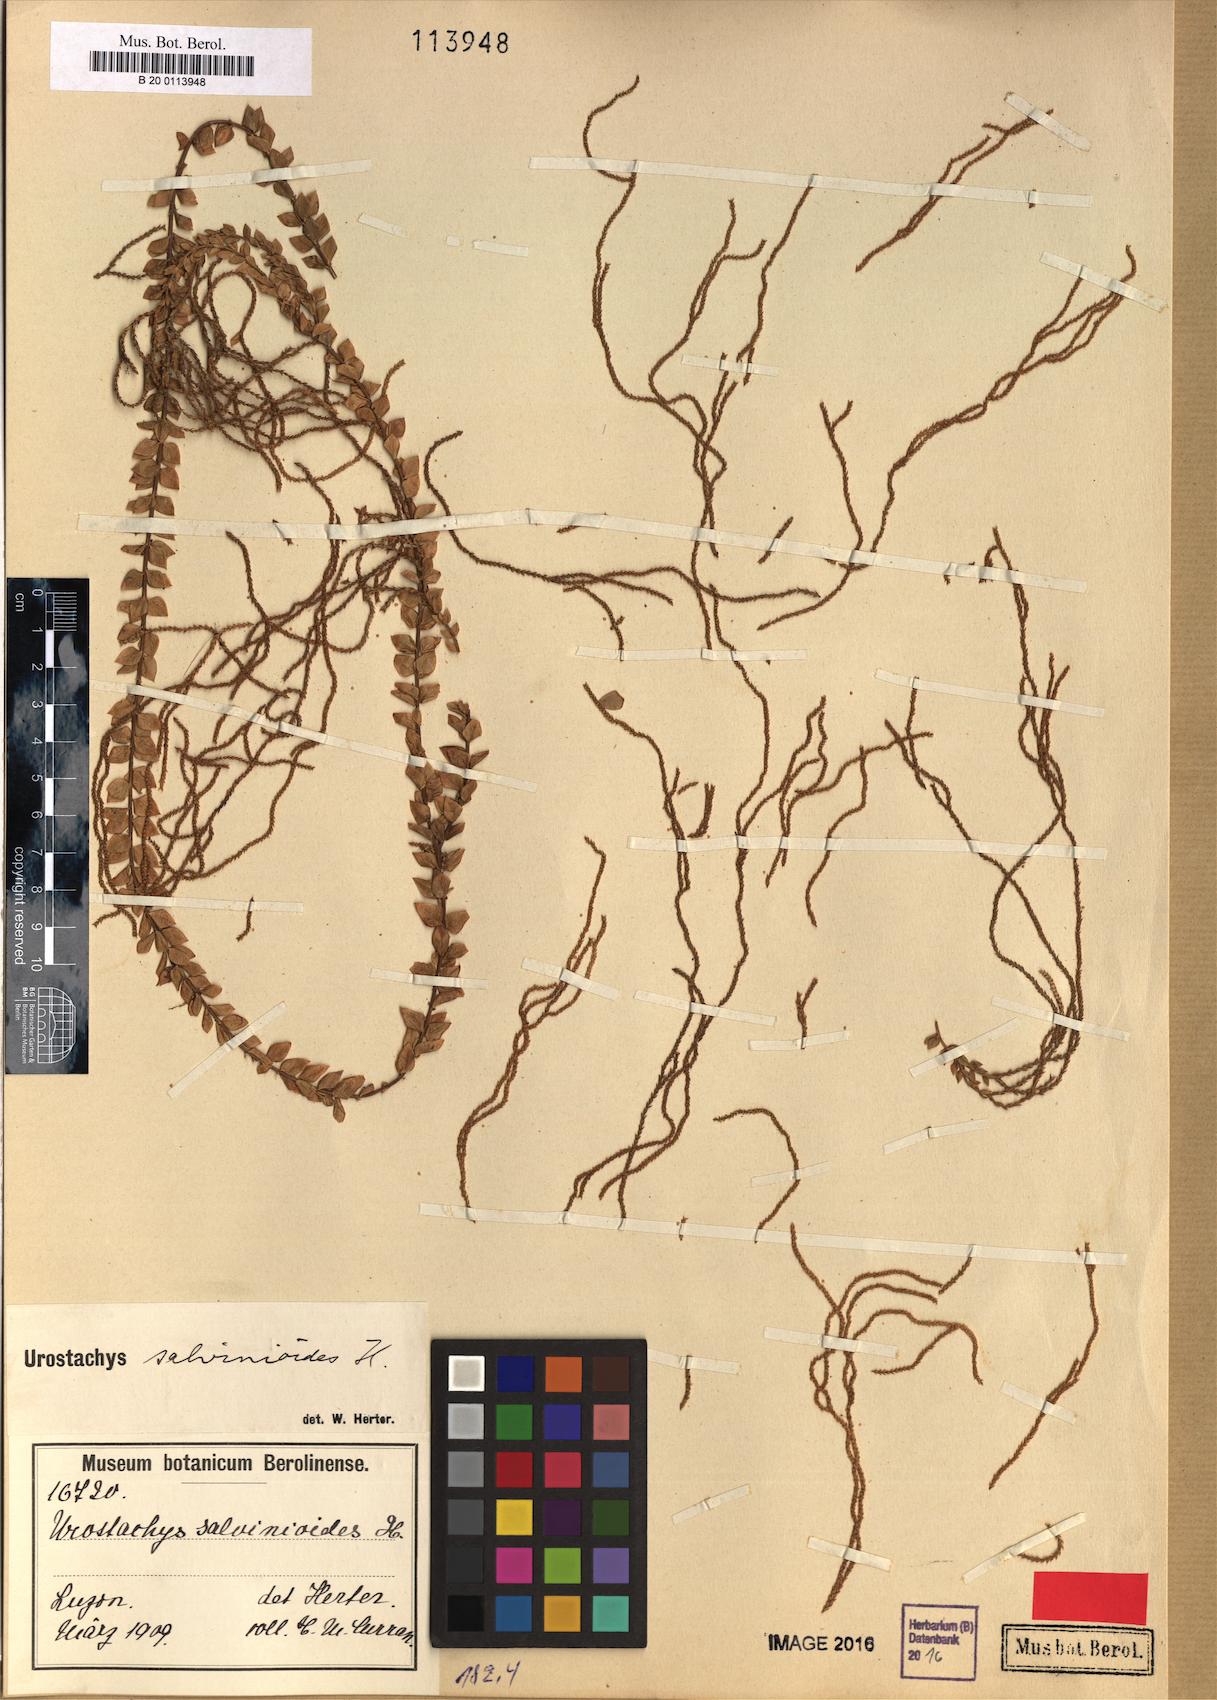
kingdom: Plantae
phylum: Tracheophyta
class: Lycopodiopsida
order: Lycopodiales
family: Lycopodiaceae
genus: Phlegmariurus
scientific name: Phlegmariurus salvinioides
